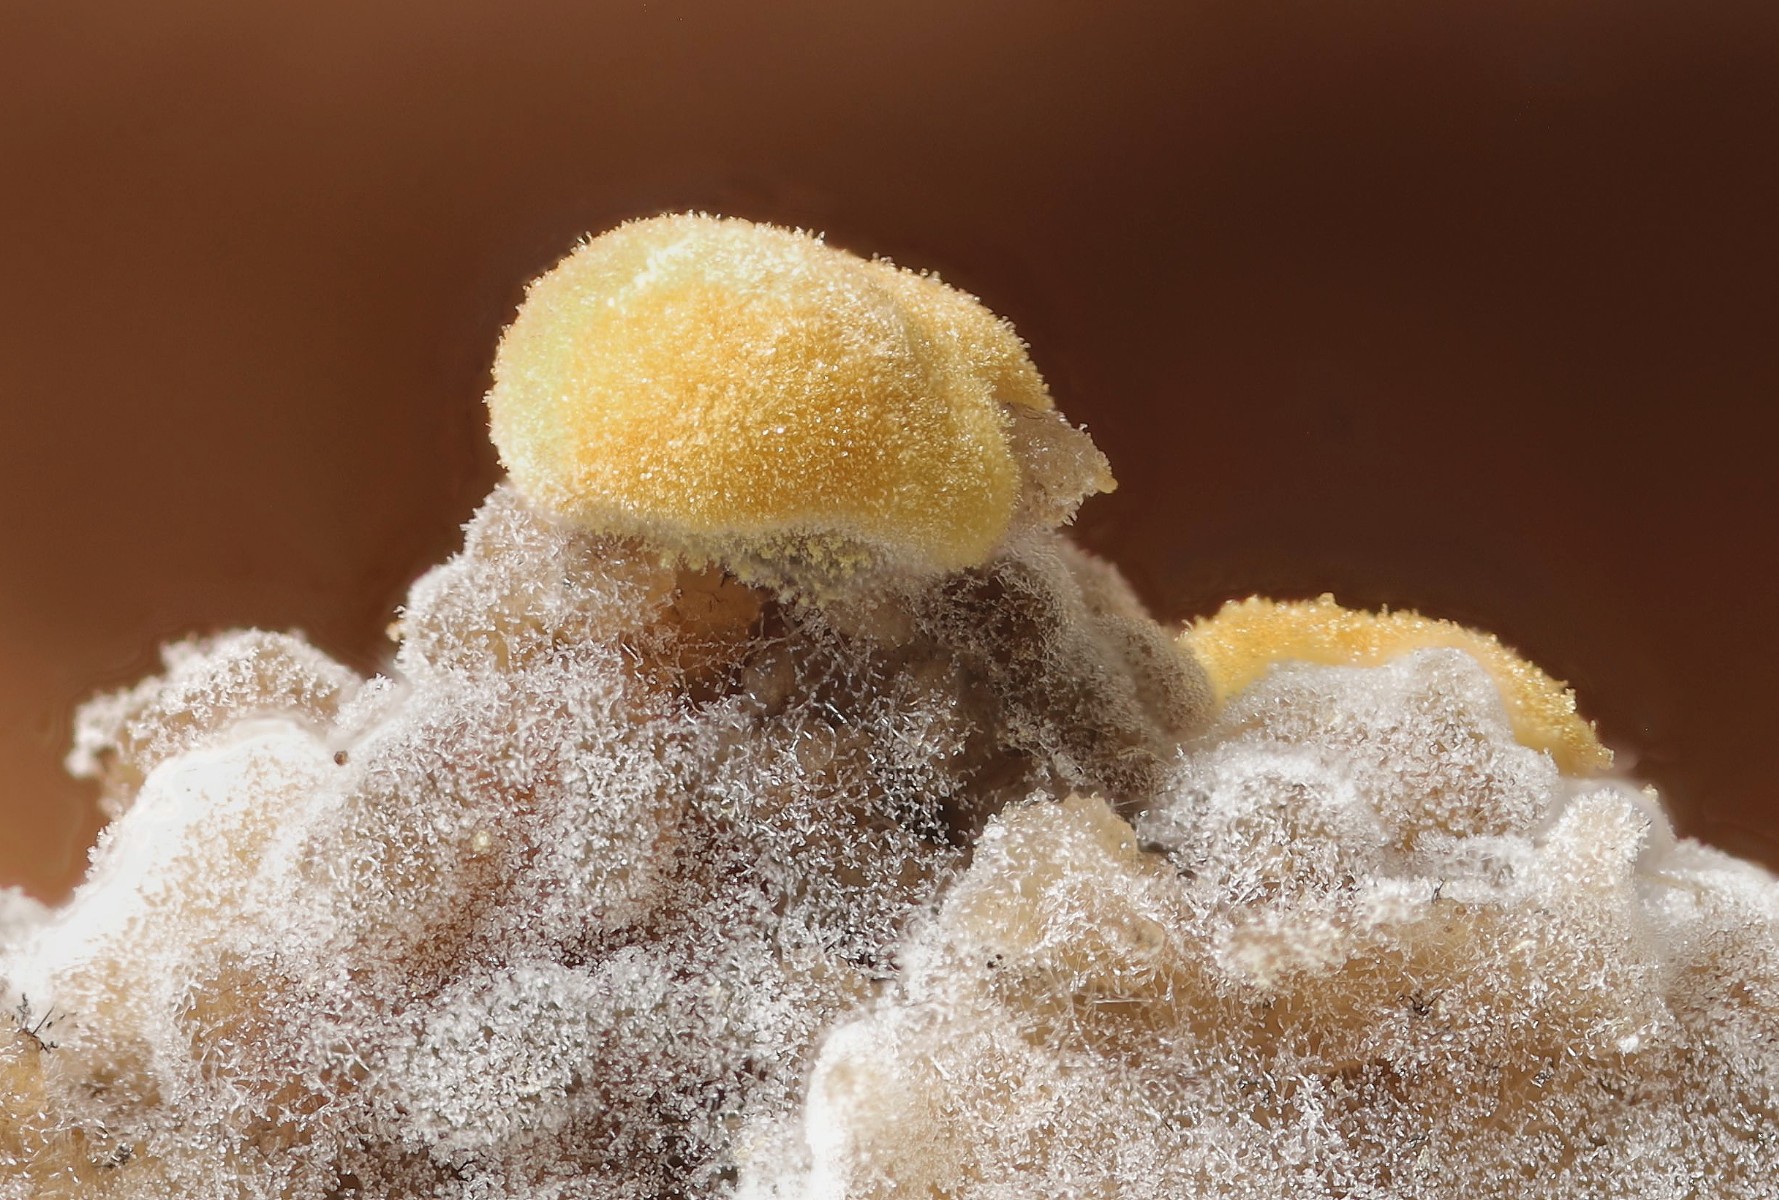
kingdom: Fungi
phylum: Basidiomycota
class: Agaricomycetes
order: Cantharellales
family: Botryobasidiaceae
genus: Botryobasidium
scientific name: Botryobasidium aureum
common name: gylden spindhinde
